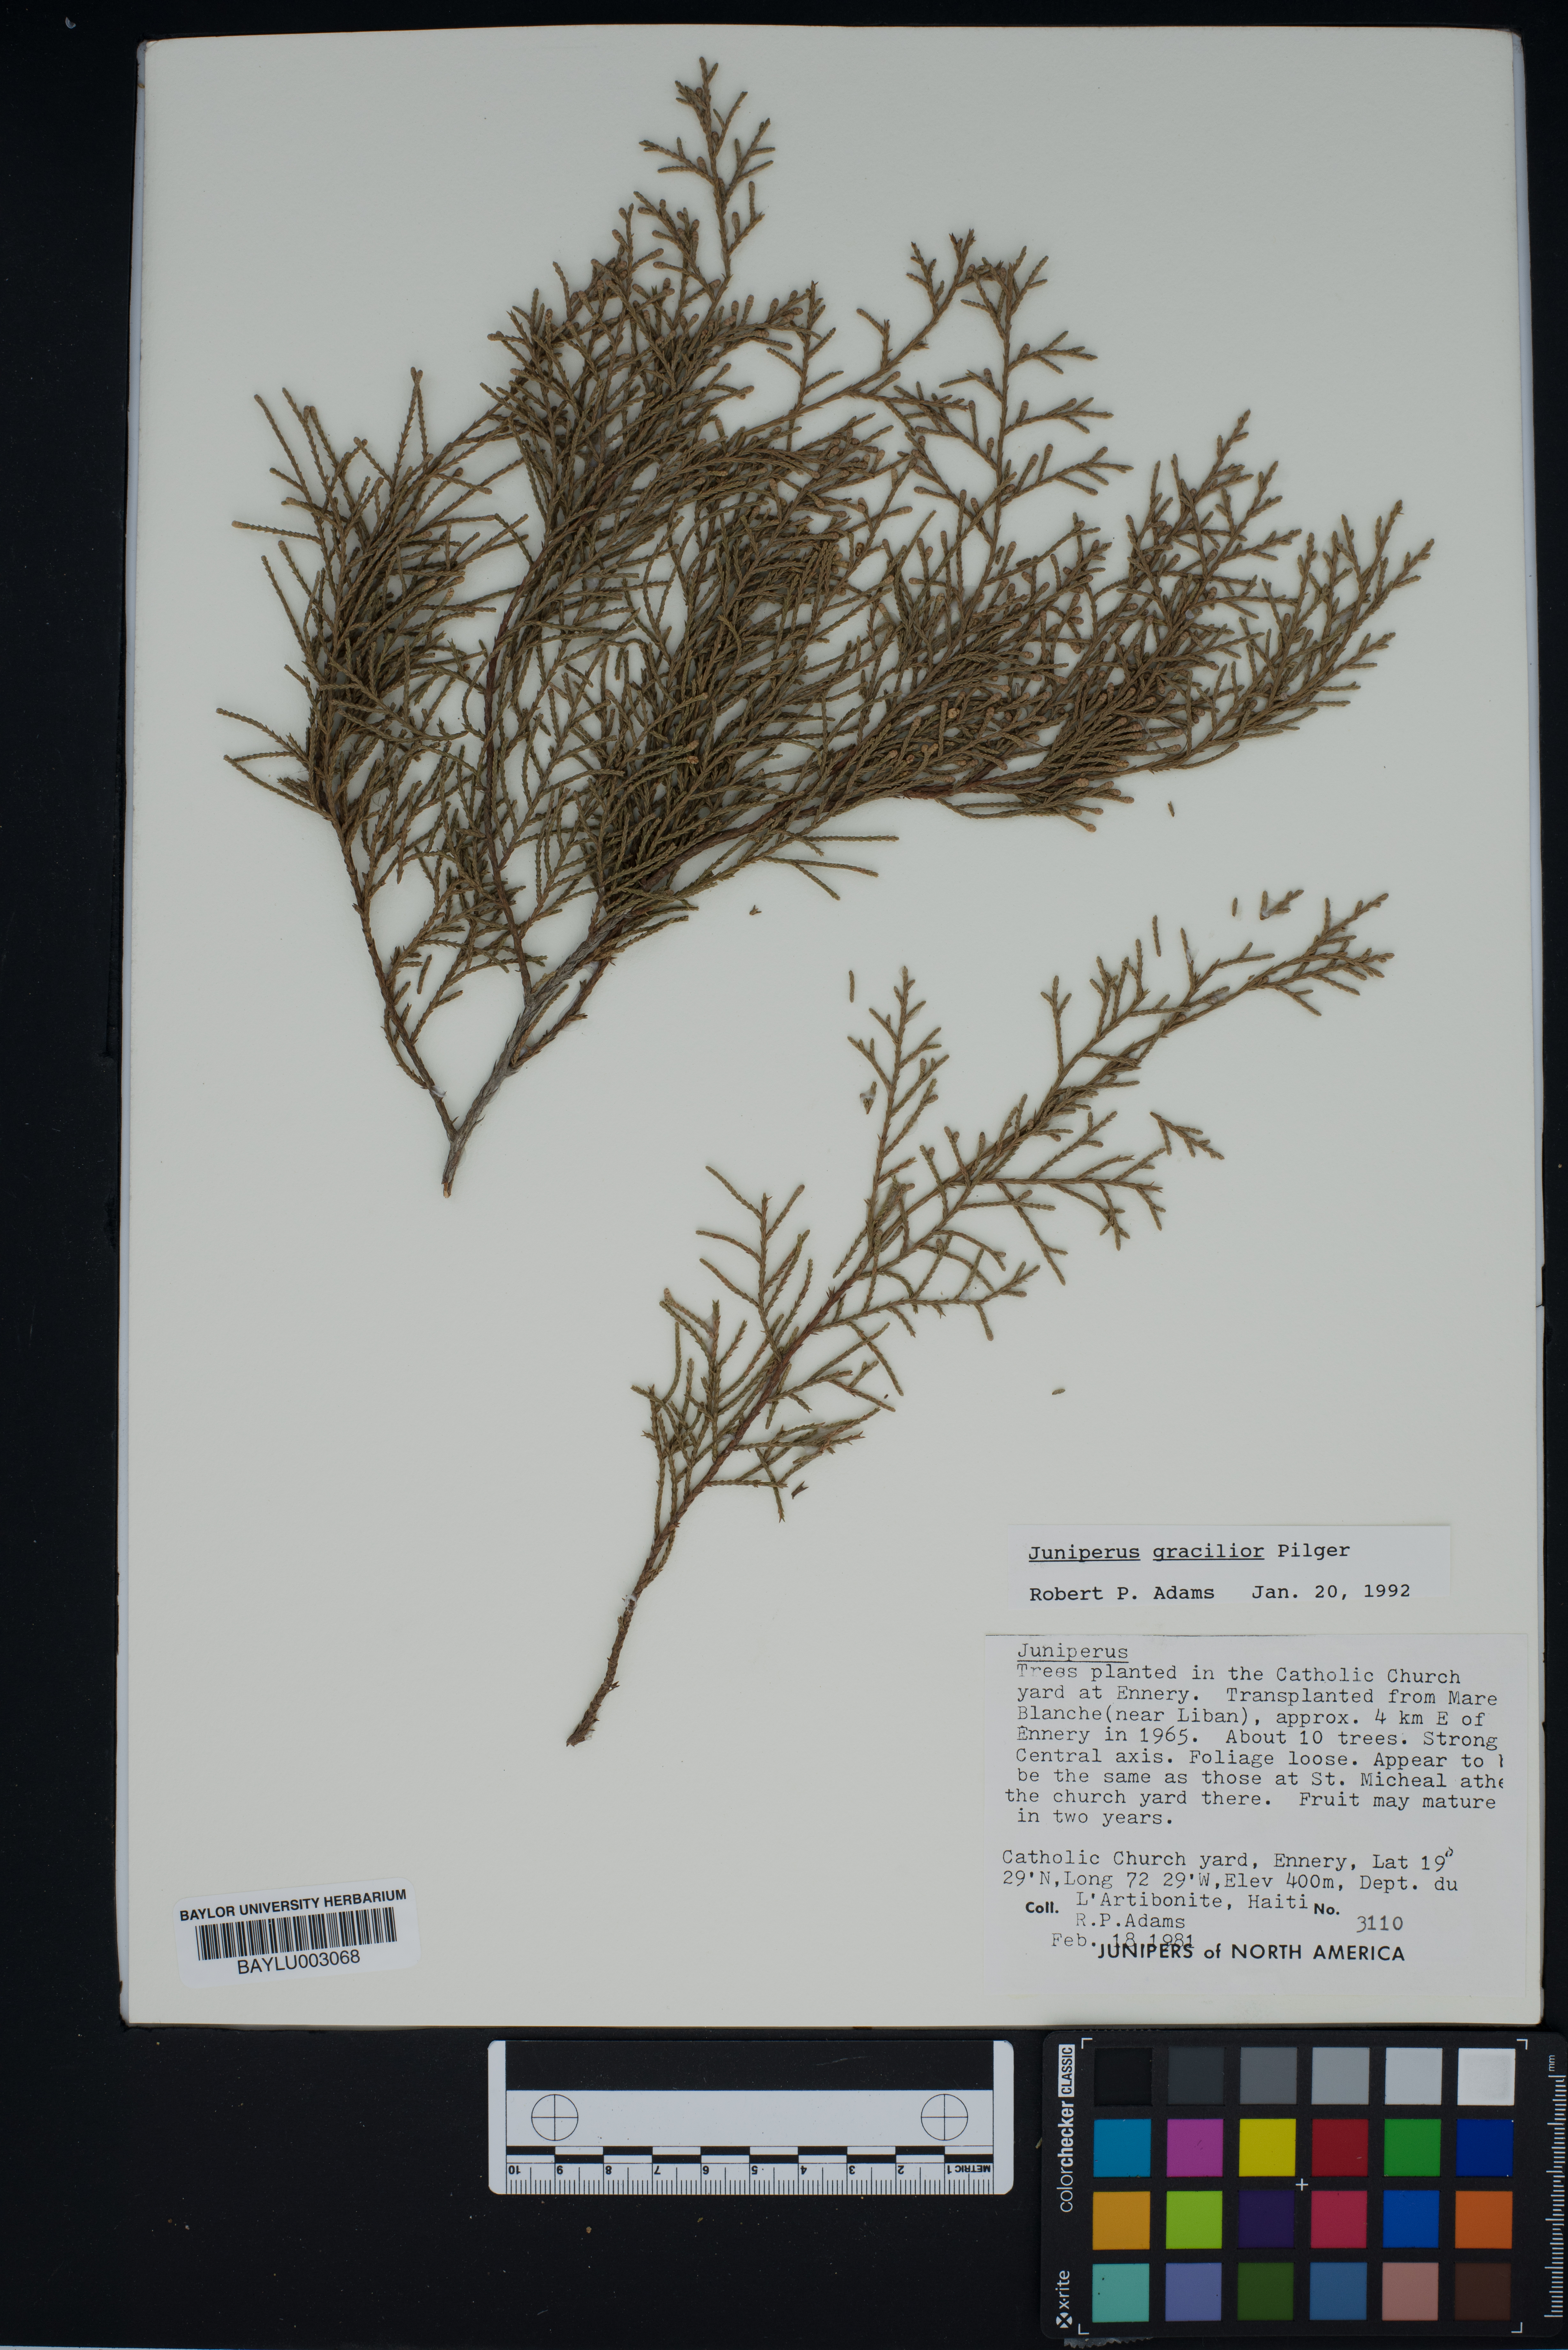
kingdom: Plantae
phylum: Tracheophyta
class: Pinopsida
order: Pinales
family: Cupressaceae
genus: Juniperus
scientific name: Juniperus gracilior
